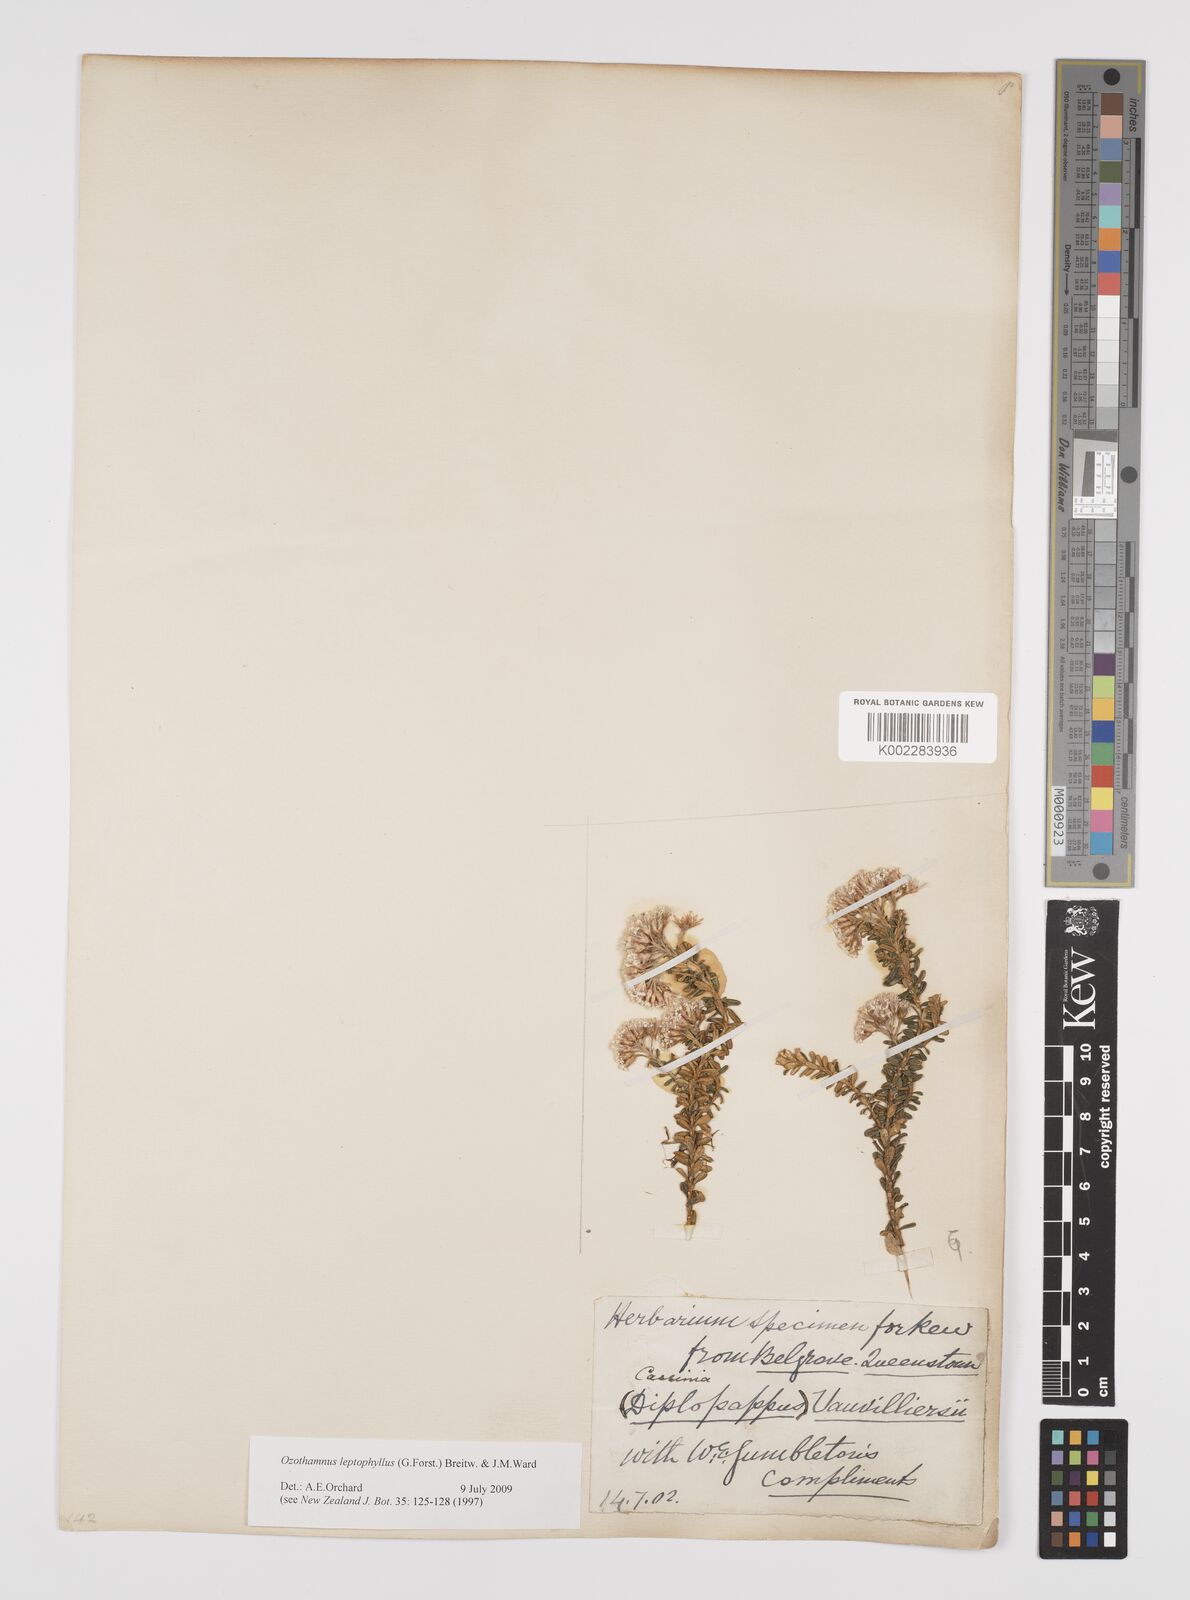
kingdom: Plantae
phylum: Tracheophyta
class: Magnoliopsida
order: Asterales
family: Asteraceae
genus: Ozothamnus
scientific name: Ozothamnus leptophyllus
